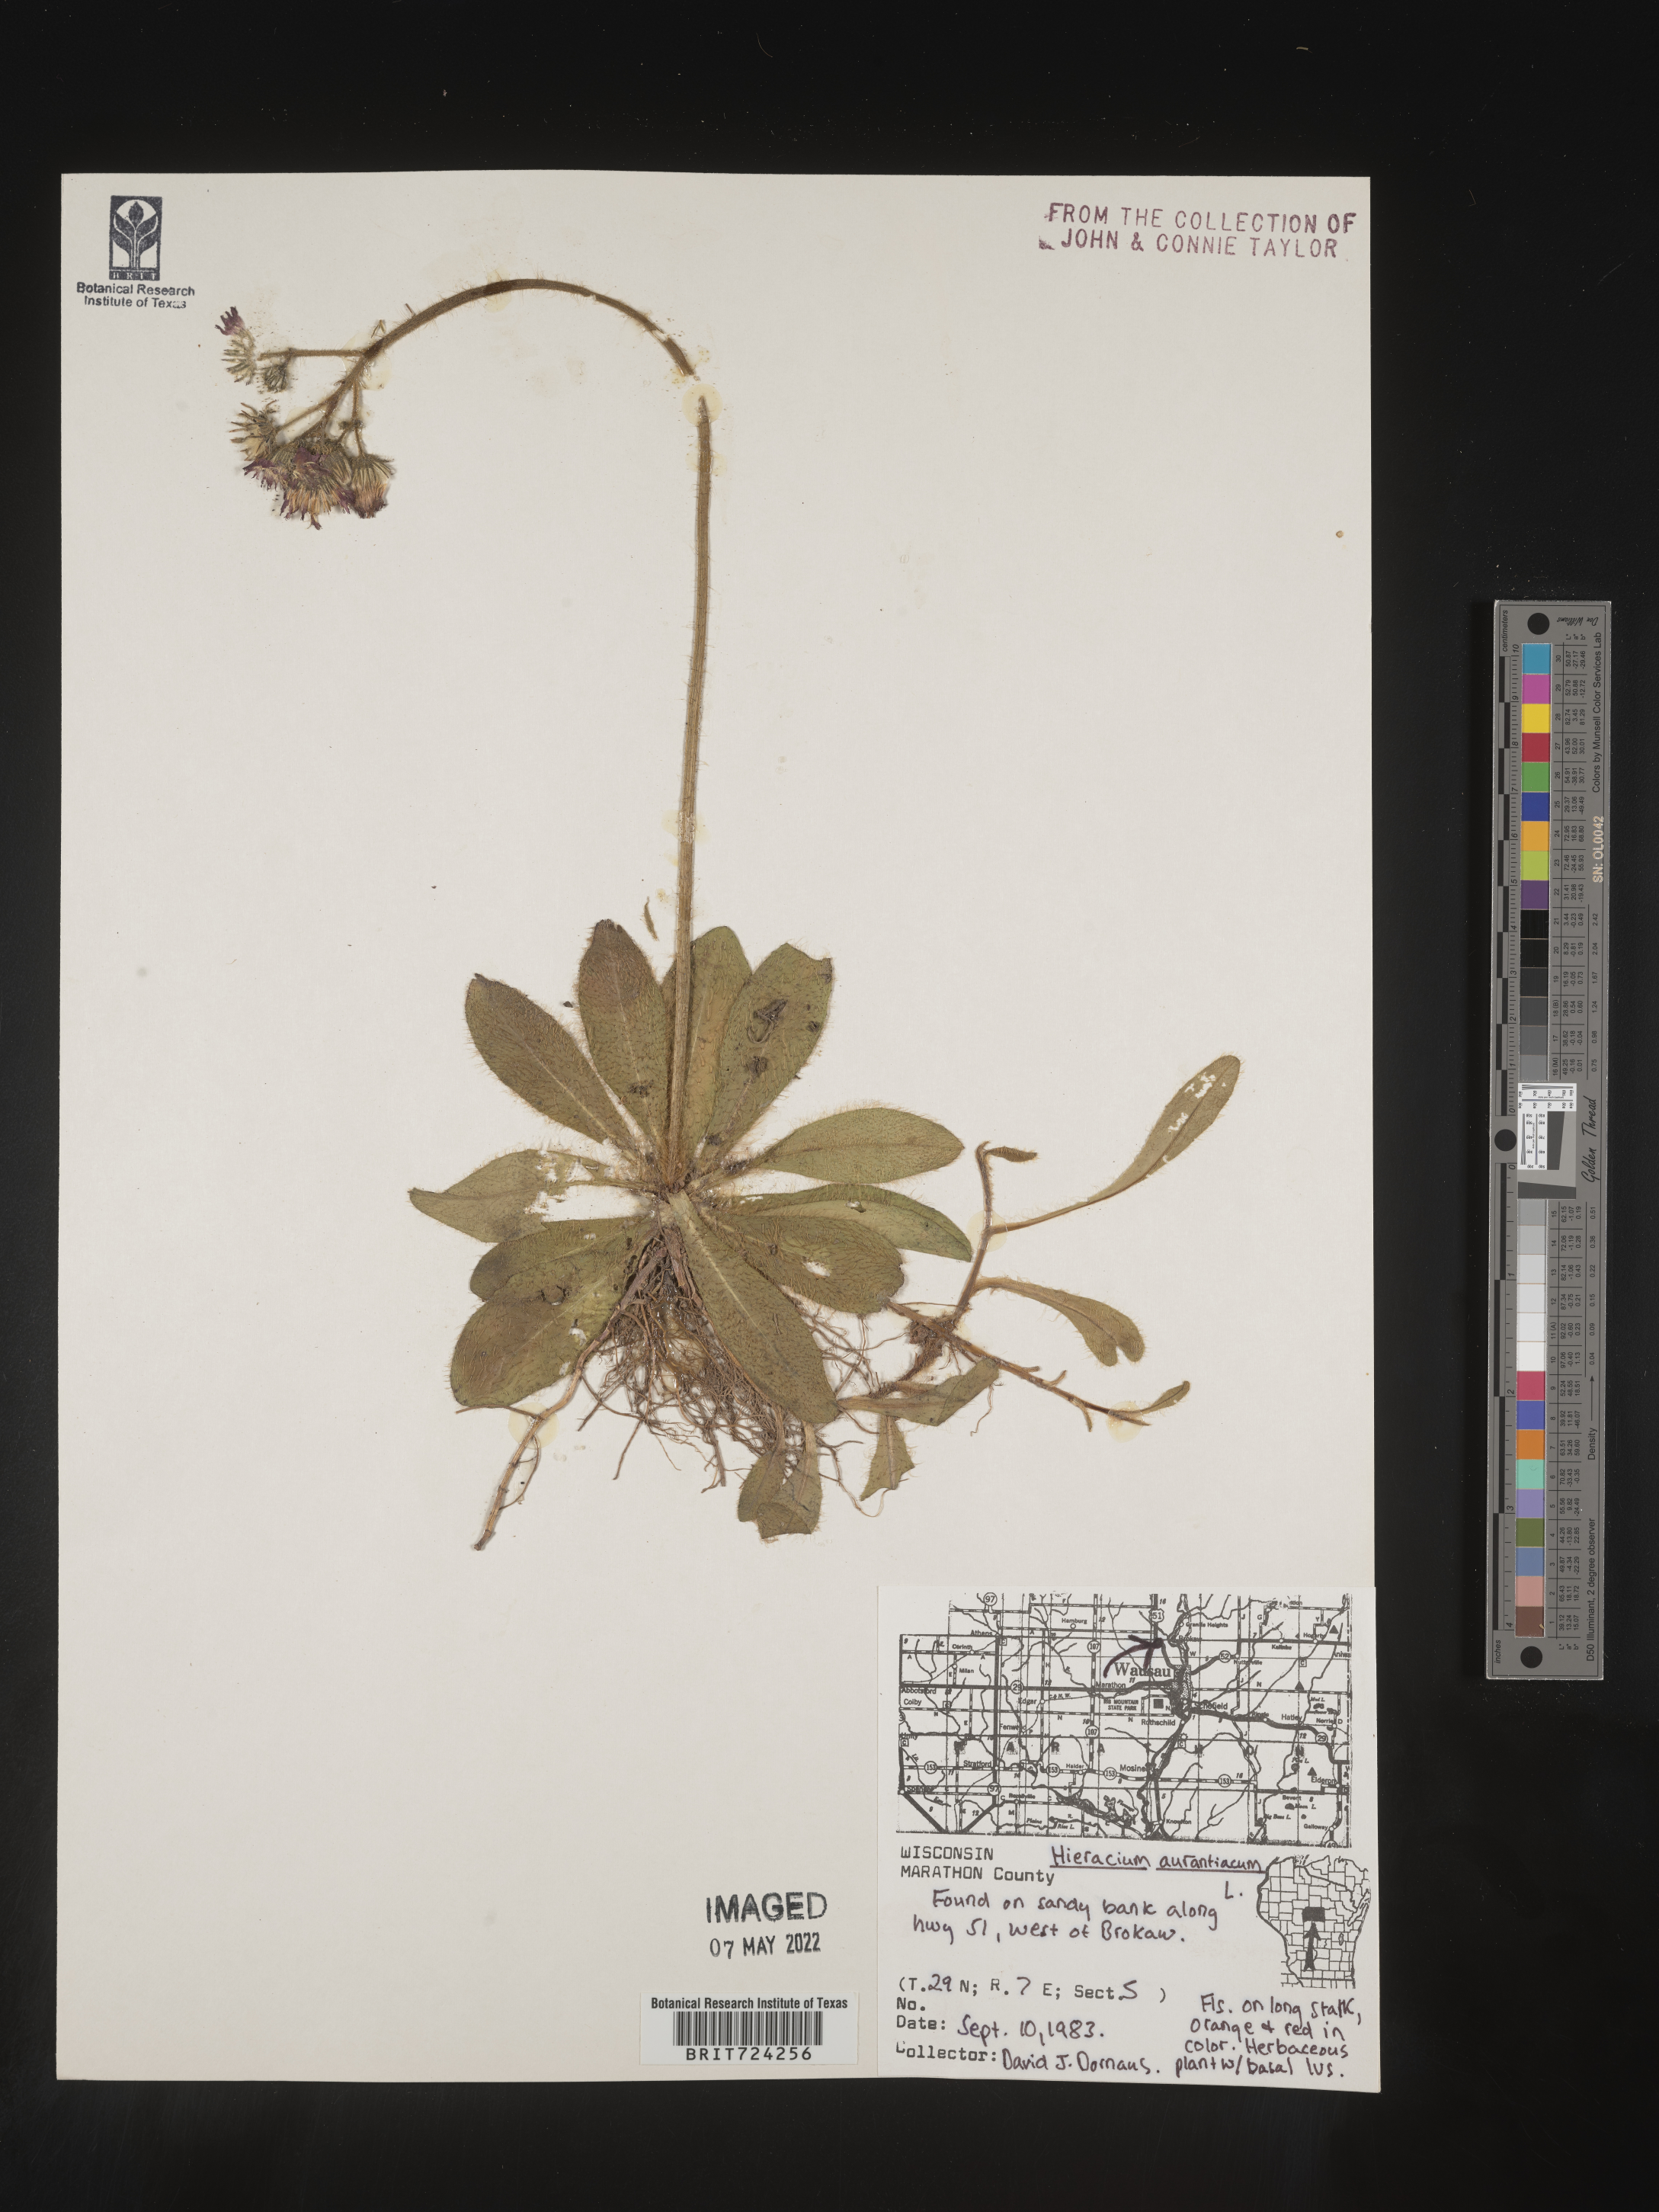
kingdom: Plantae
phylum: Tracheophyta
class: Magnoliopsida
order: Asterales
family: Asteraceae
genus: Pilosella
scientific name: Pilosella aurantiaca
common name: Fox-and-cubs
